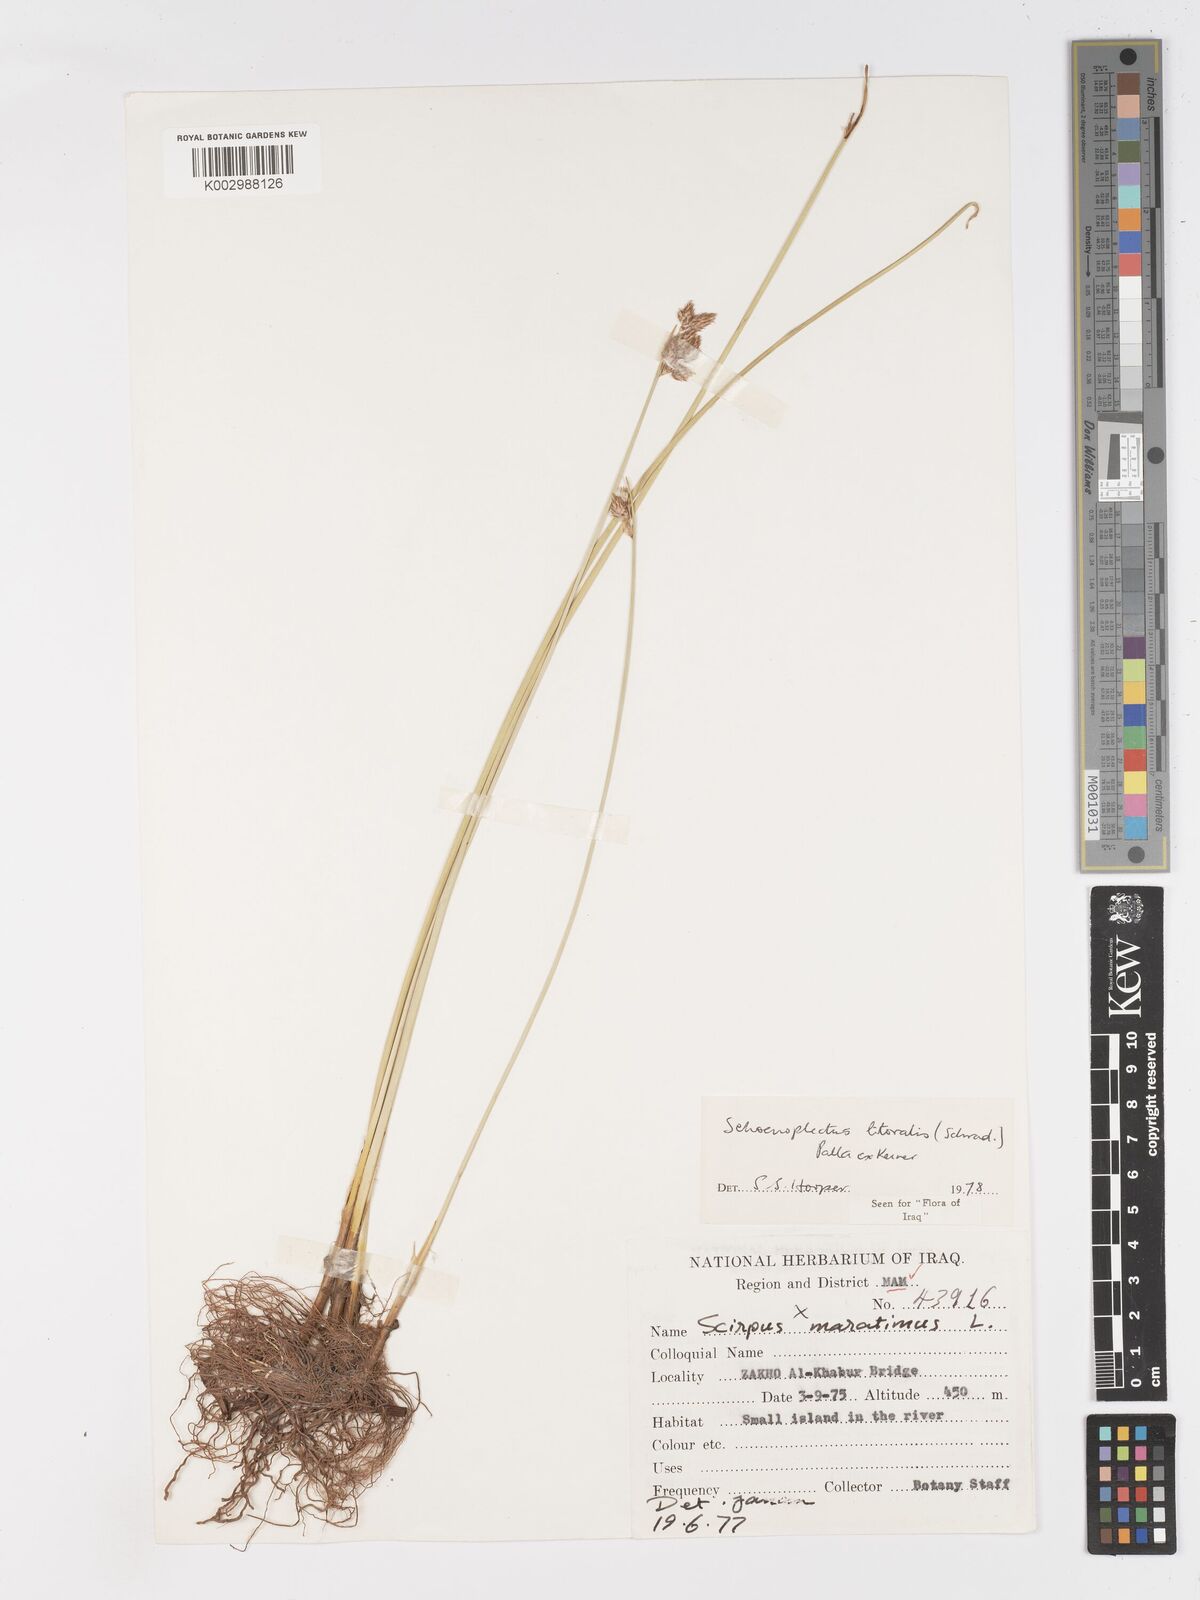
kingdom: Plantae
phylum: Tracheophyta
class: Liliopsida
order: Poales
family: Cyperaceae
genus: Schoenoplectus
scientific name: Schoenoplectus litoralis
